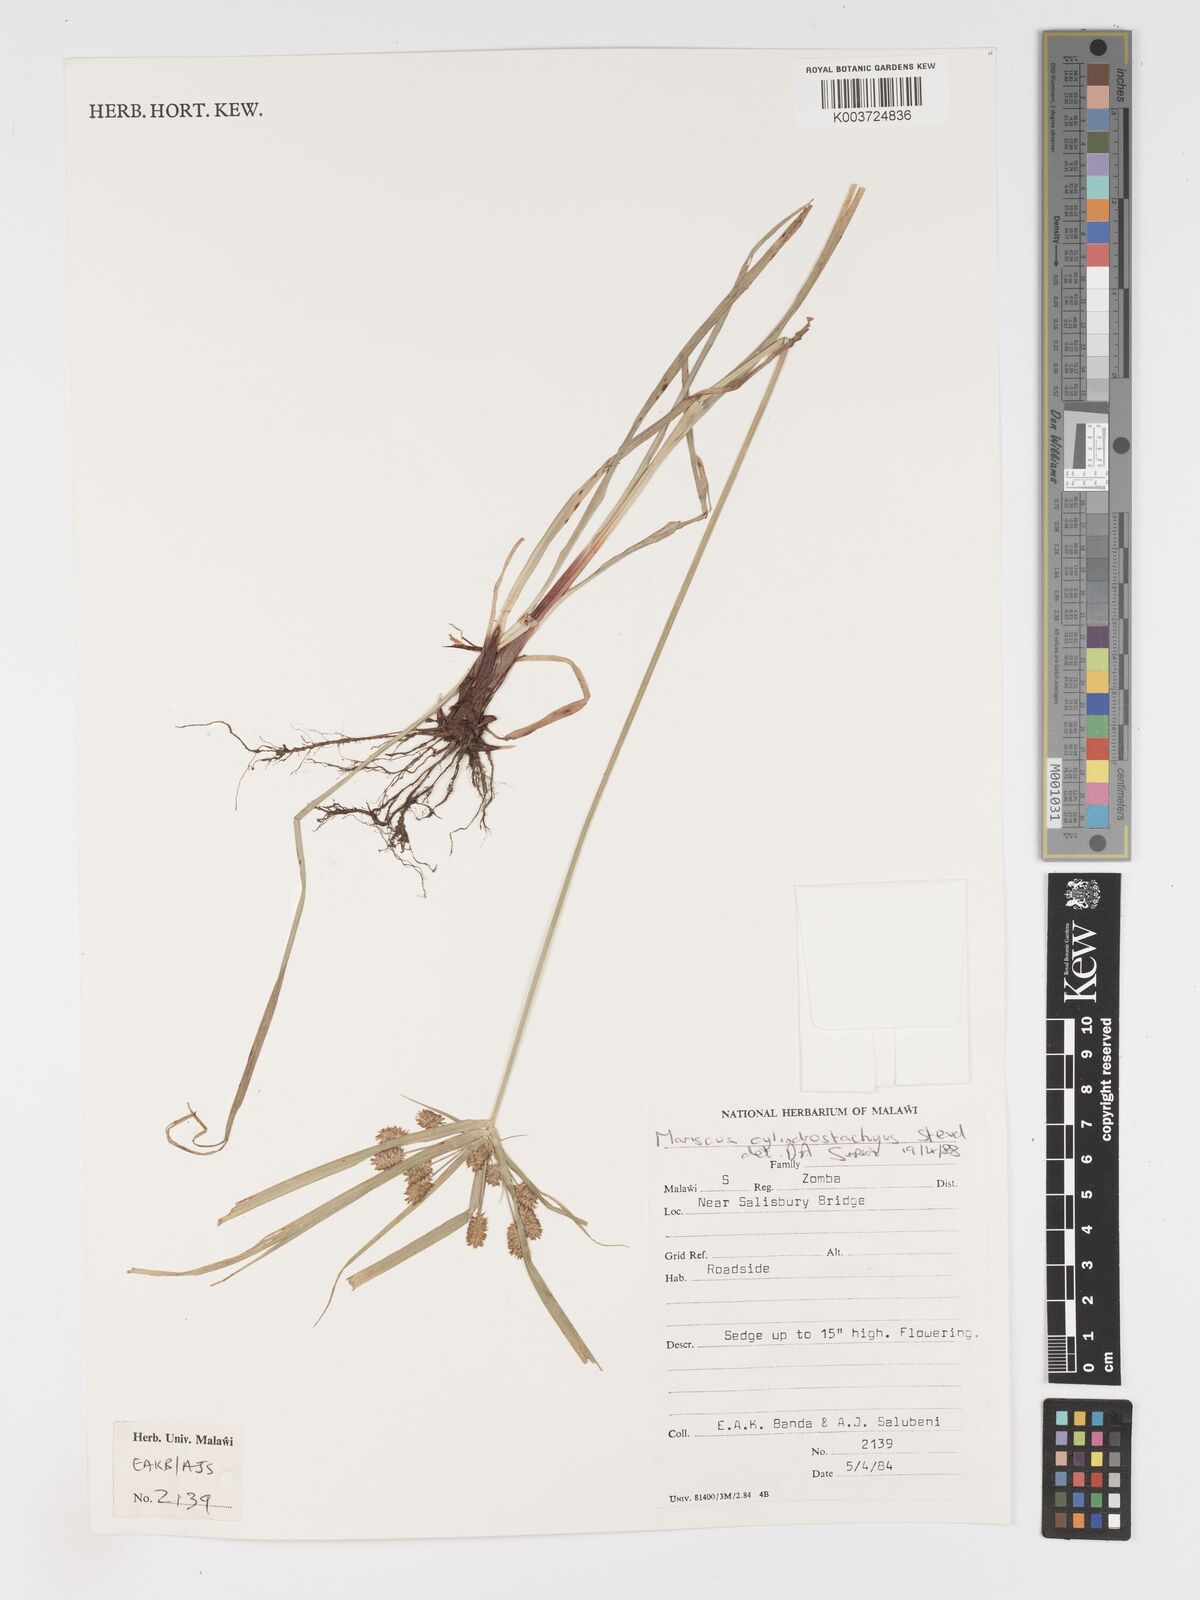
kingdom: Plantae
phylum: Tracheophyta
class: Liliopsida
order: Poales
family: Cyperaceae
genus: Cyperus
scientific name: Cyperus cyperoides
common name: Pacific island flat sedge
